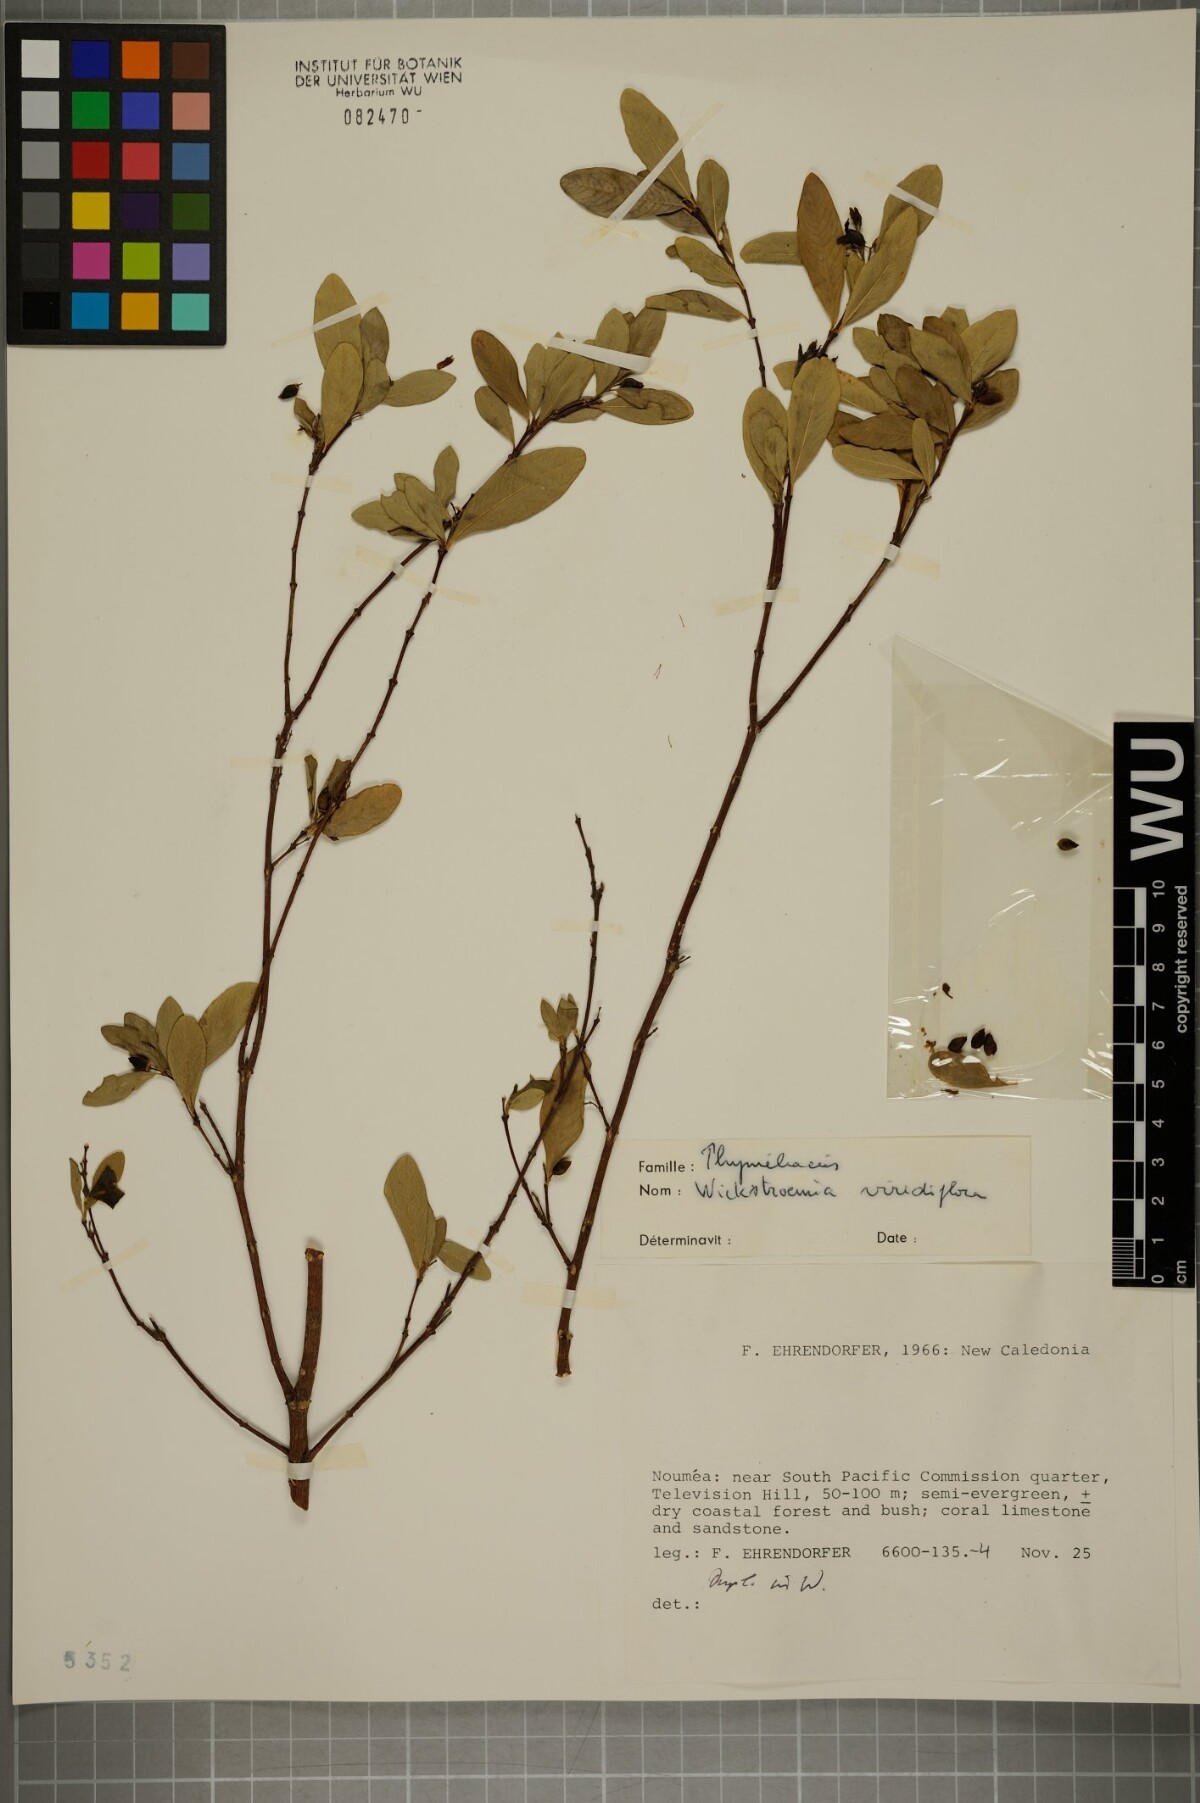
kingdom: Plantae
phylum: Tracheophyta
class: Magnoliopsida
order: Malvales
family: Thymelaeaceae
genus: Wikstroemia
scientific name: Wikstroemia indica
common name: Tiebush
